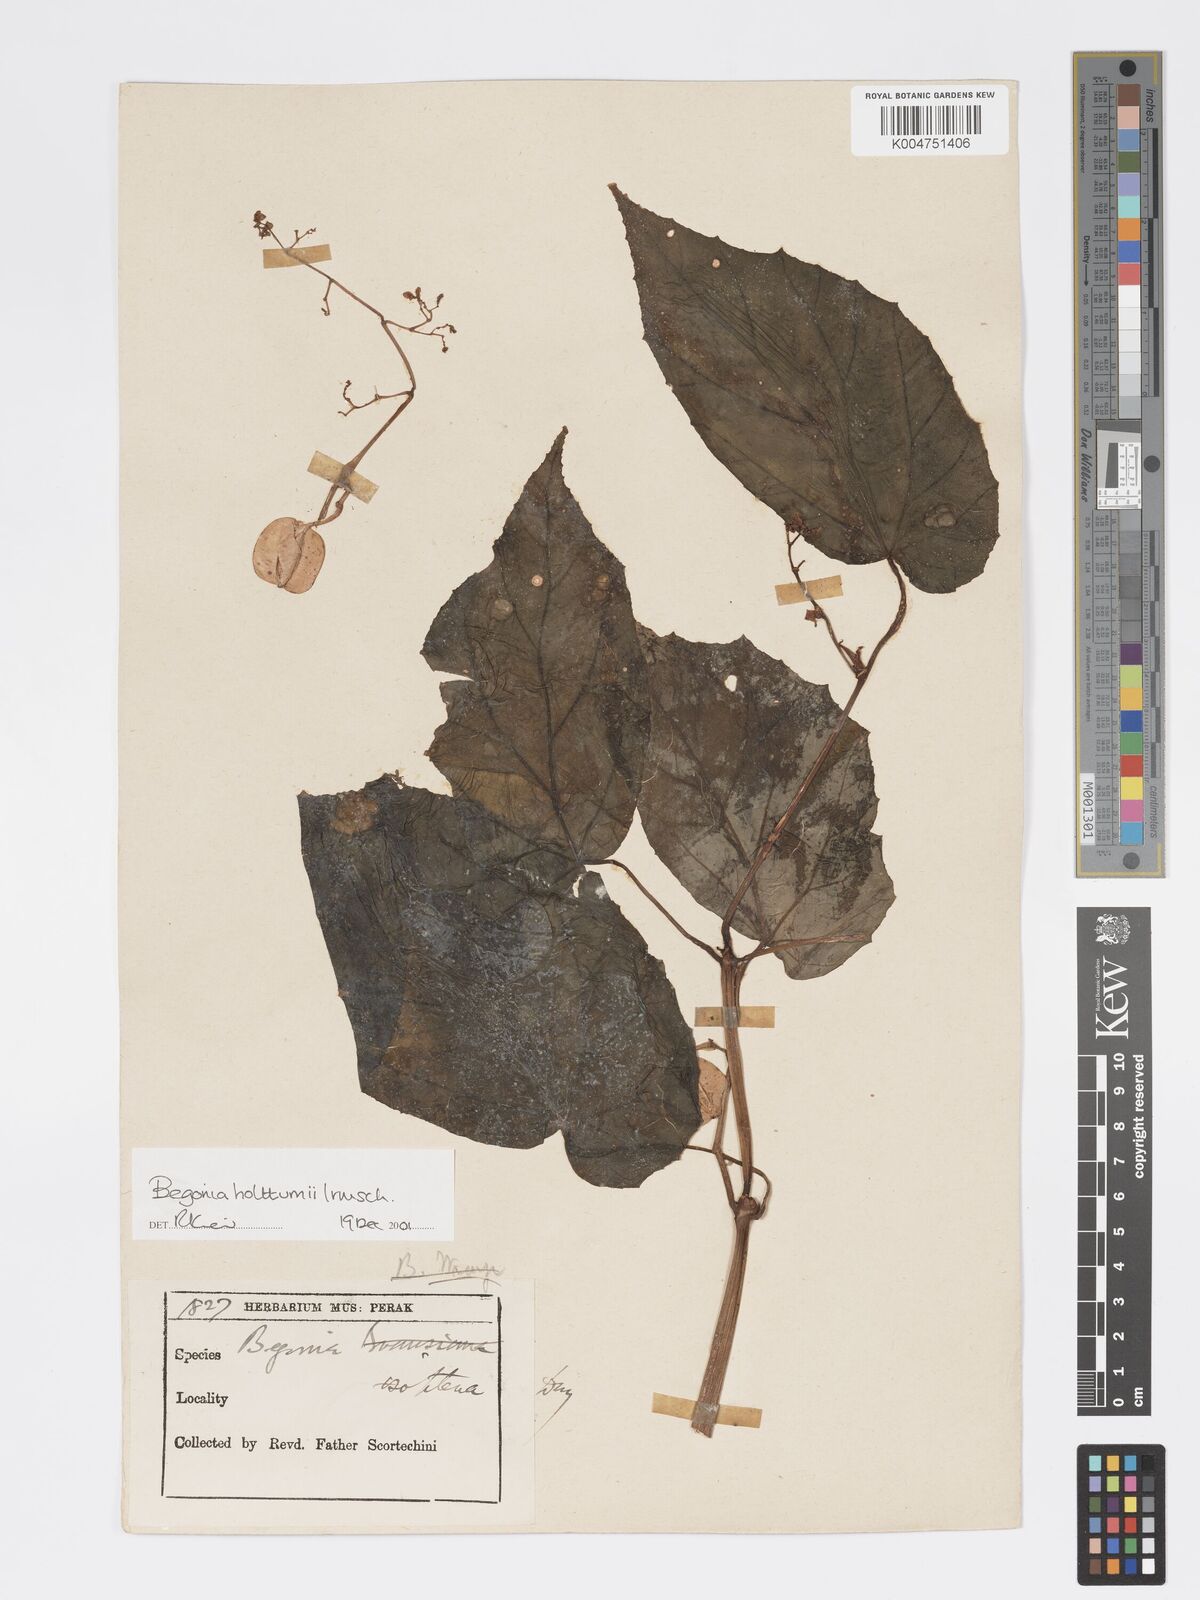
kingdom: Plantae
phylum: Tracheophyta
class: Magnoliopsida
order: Cucurbitales
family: Begoniaceae
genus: Begonia
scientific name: Begonia holttumii
